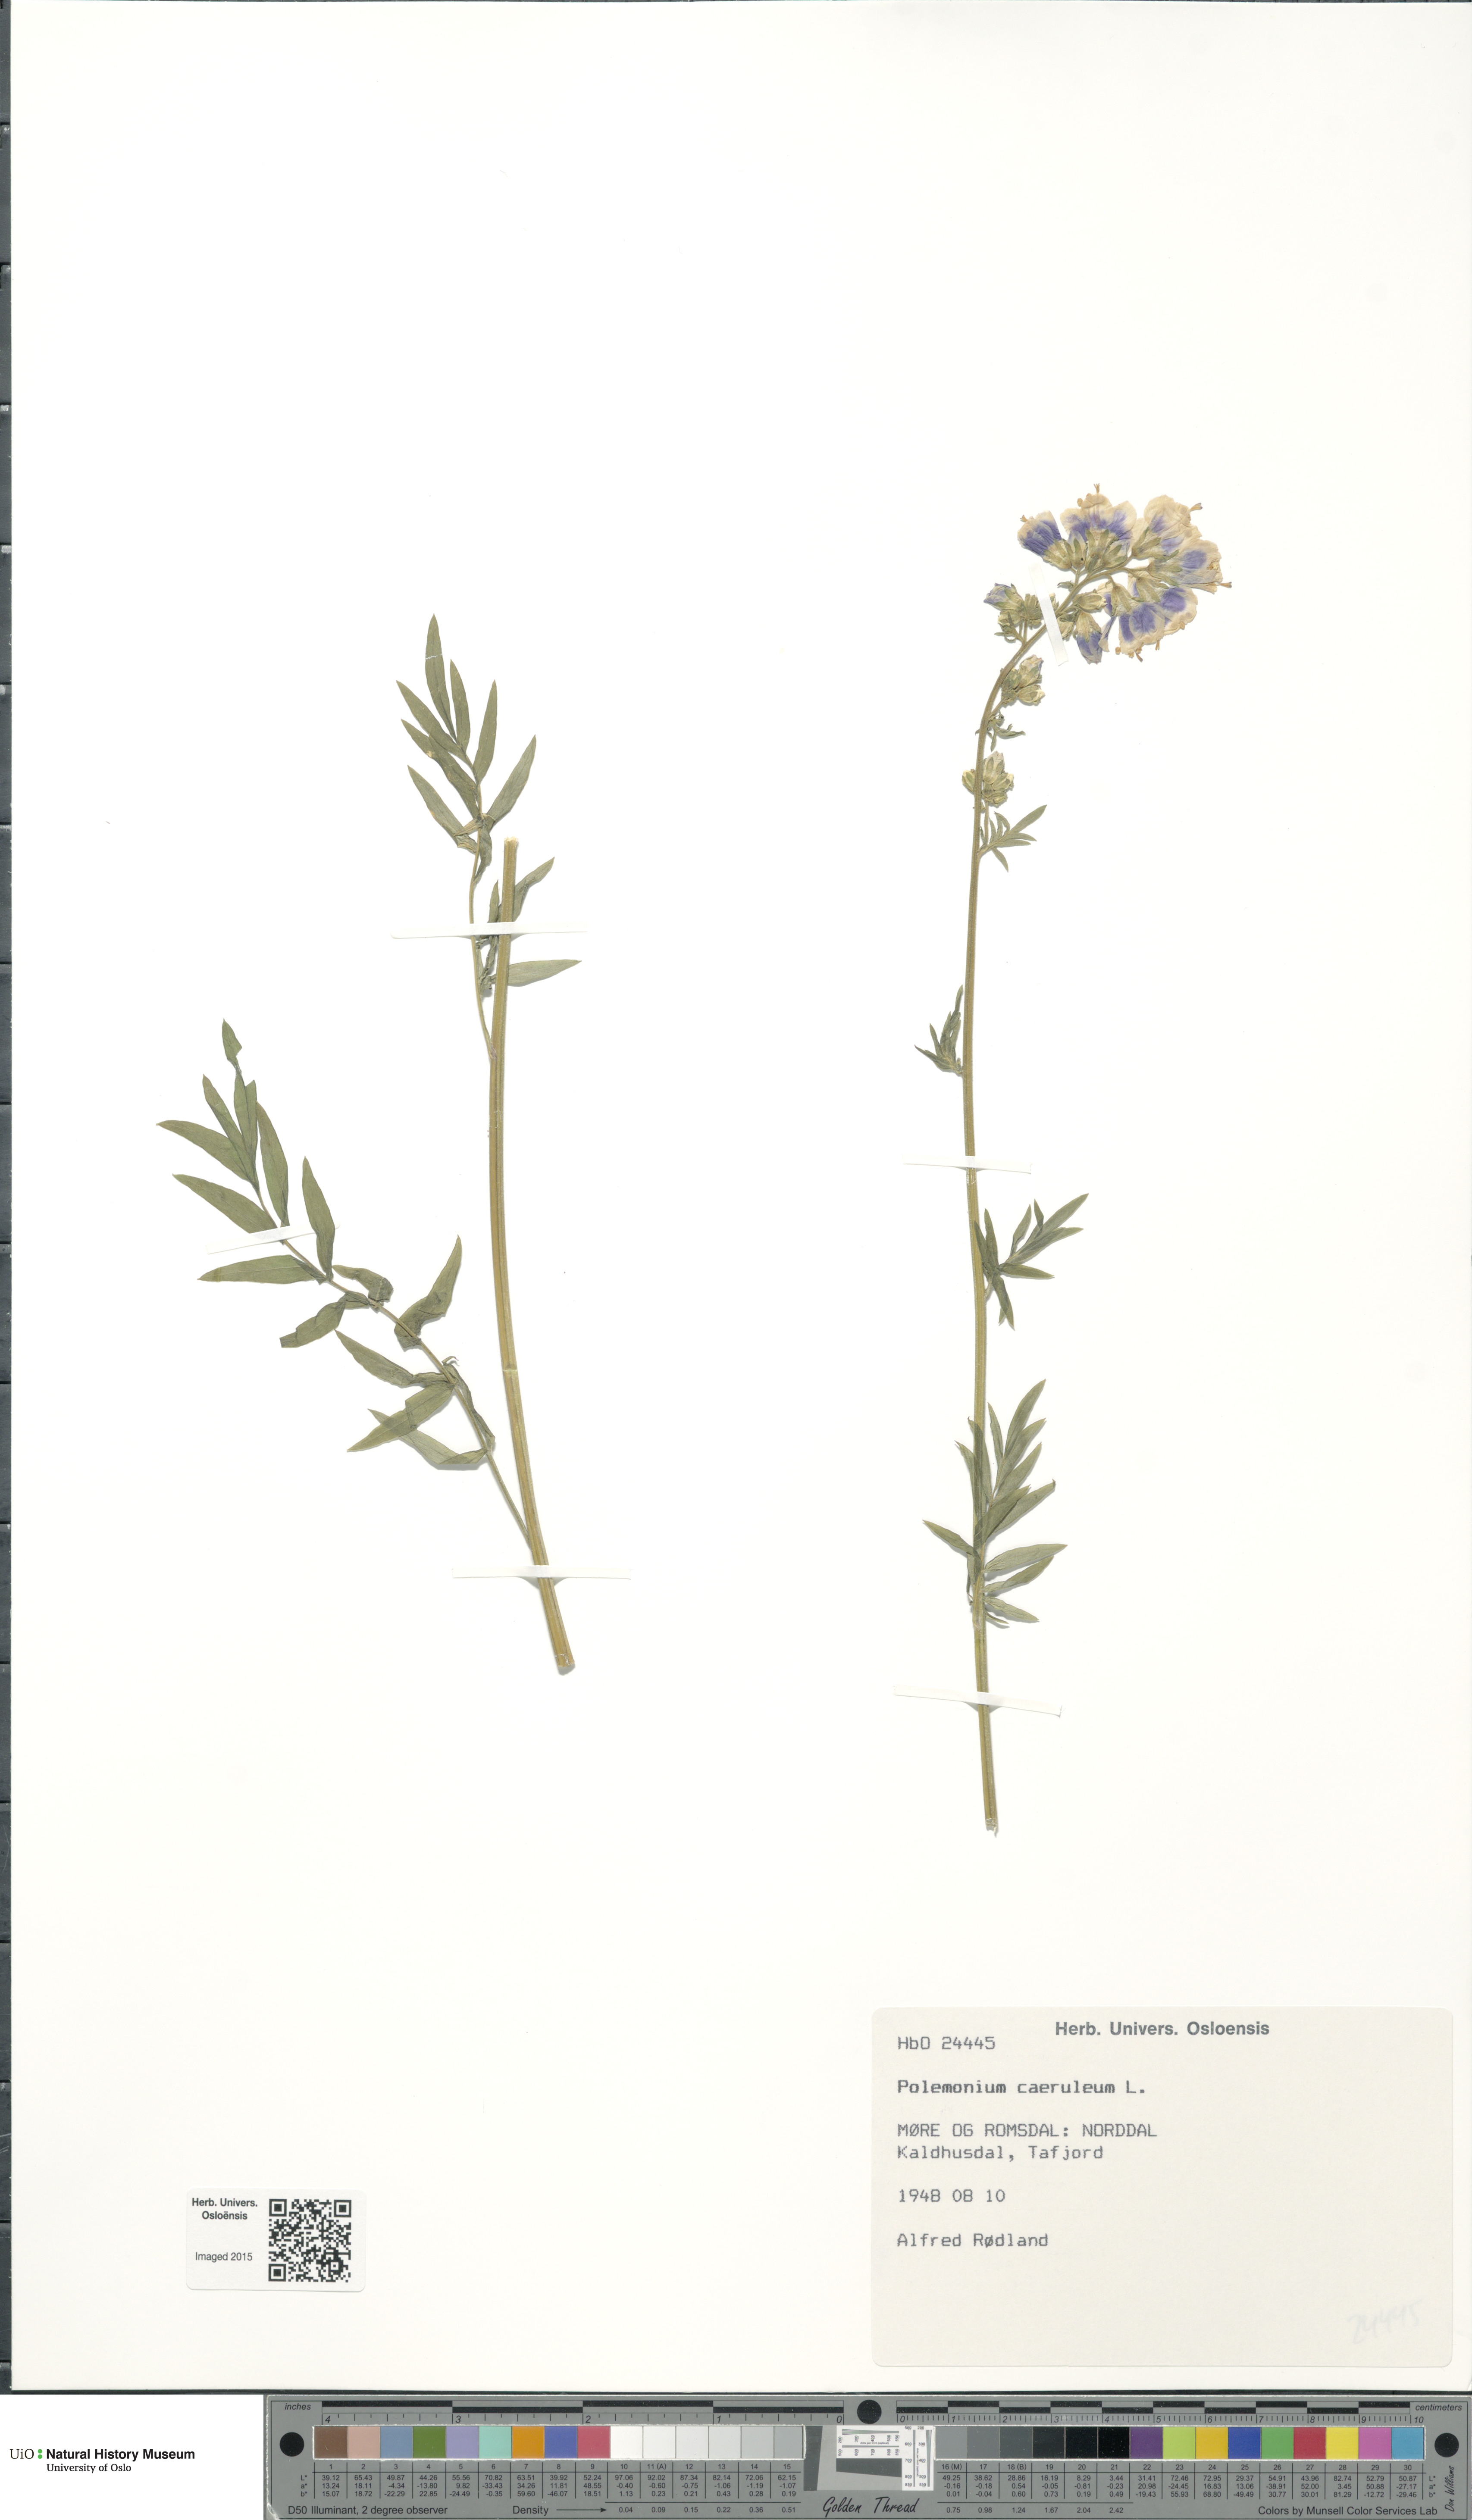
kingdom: Plantae
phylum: Tracheophyta
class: Magnoliopsida
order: Ericales
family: Polemoniaceae
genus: Polemonium
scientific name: Polemonium caeruleum
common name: Jacob's-ladder
